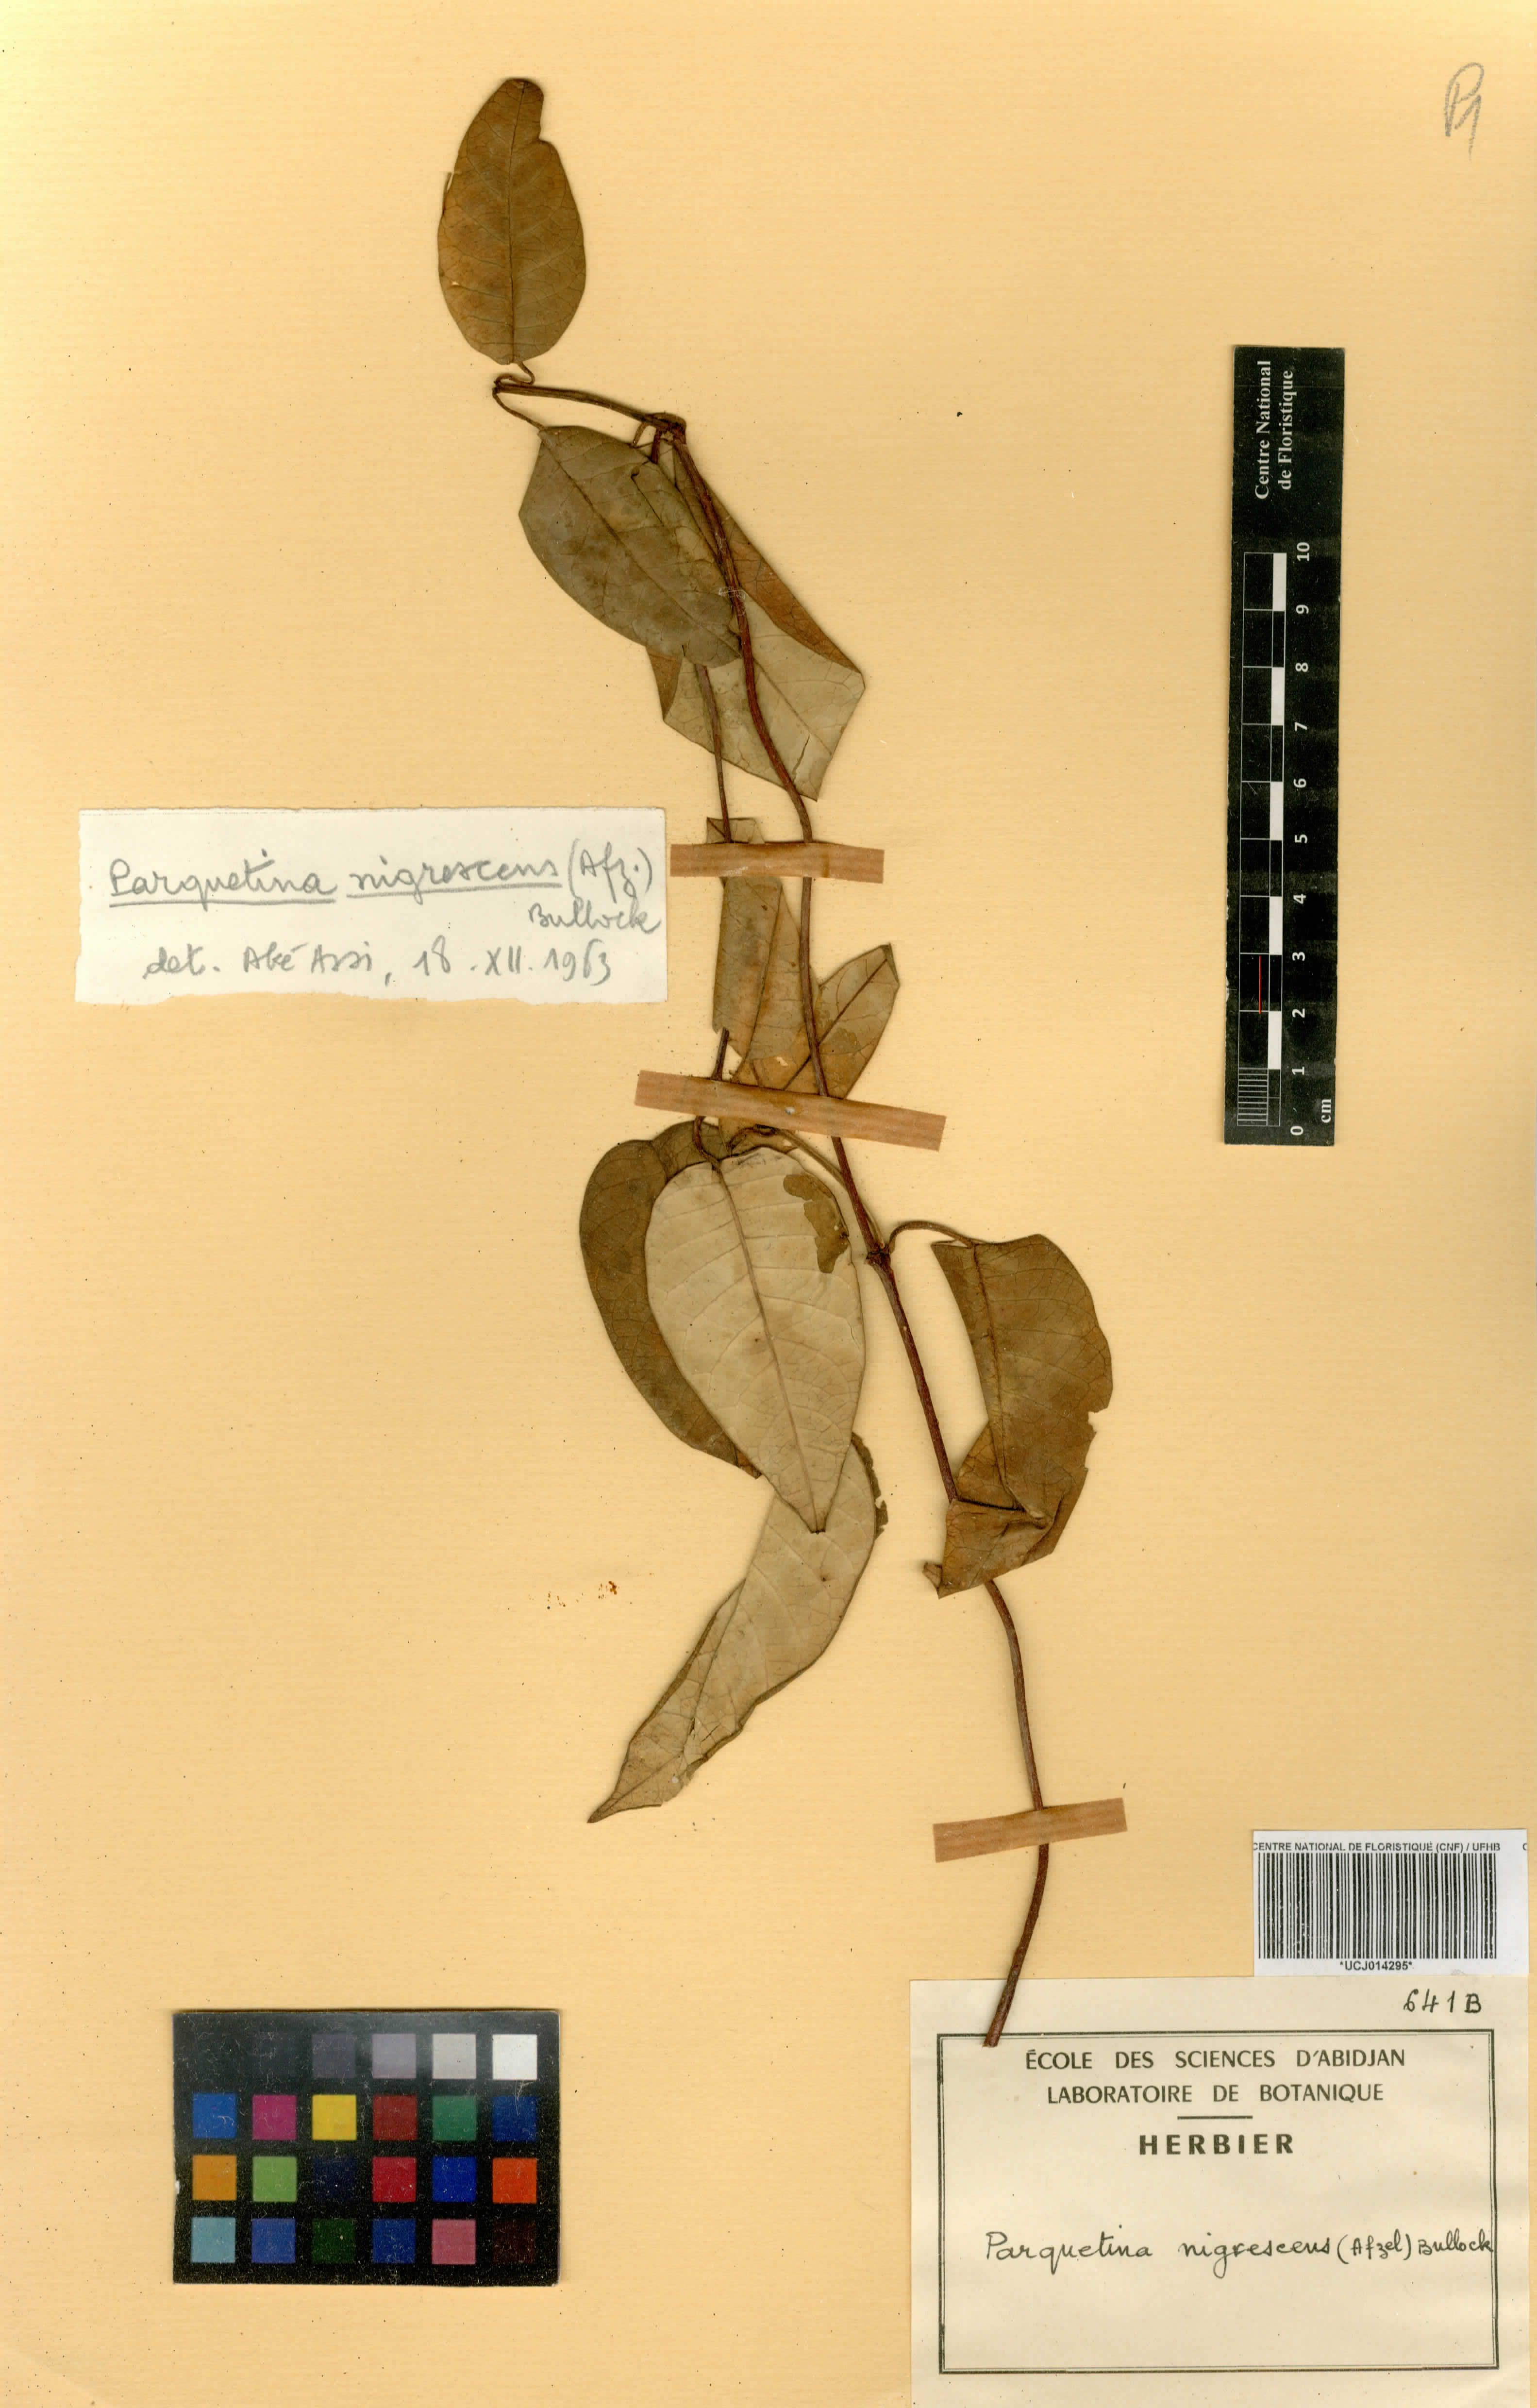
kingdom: Plantae
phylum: Tracheophyta
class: Magnoliopsida
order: Gentianales
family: Apocynaceae
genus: Cryptolepis
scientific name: Cryptolepis nigrescens
